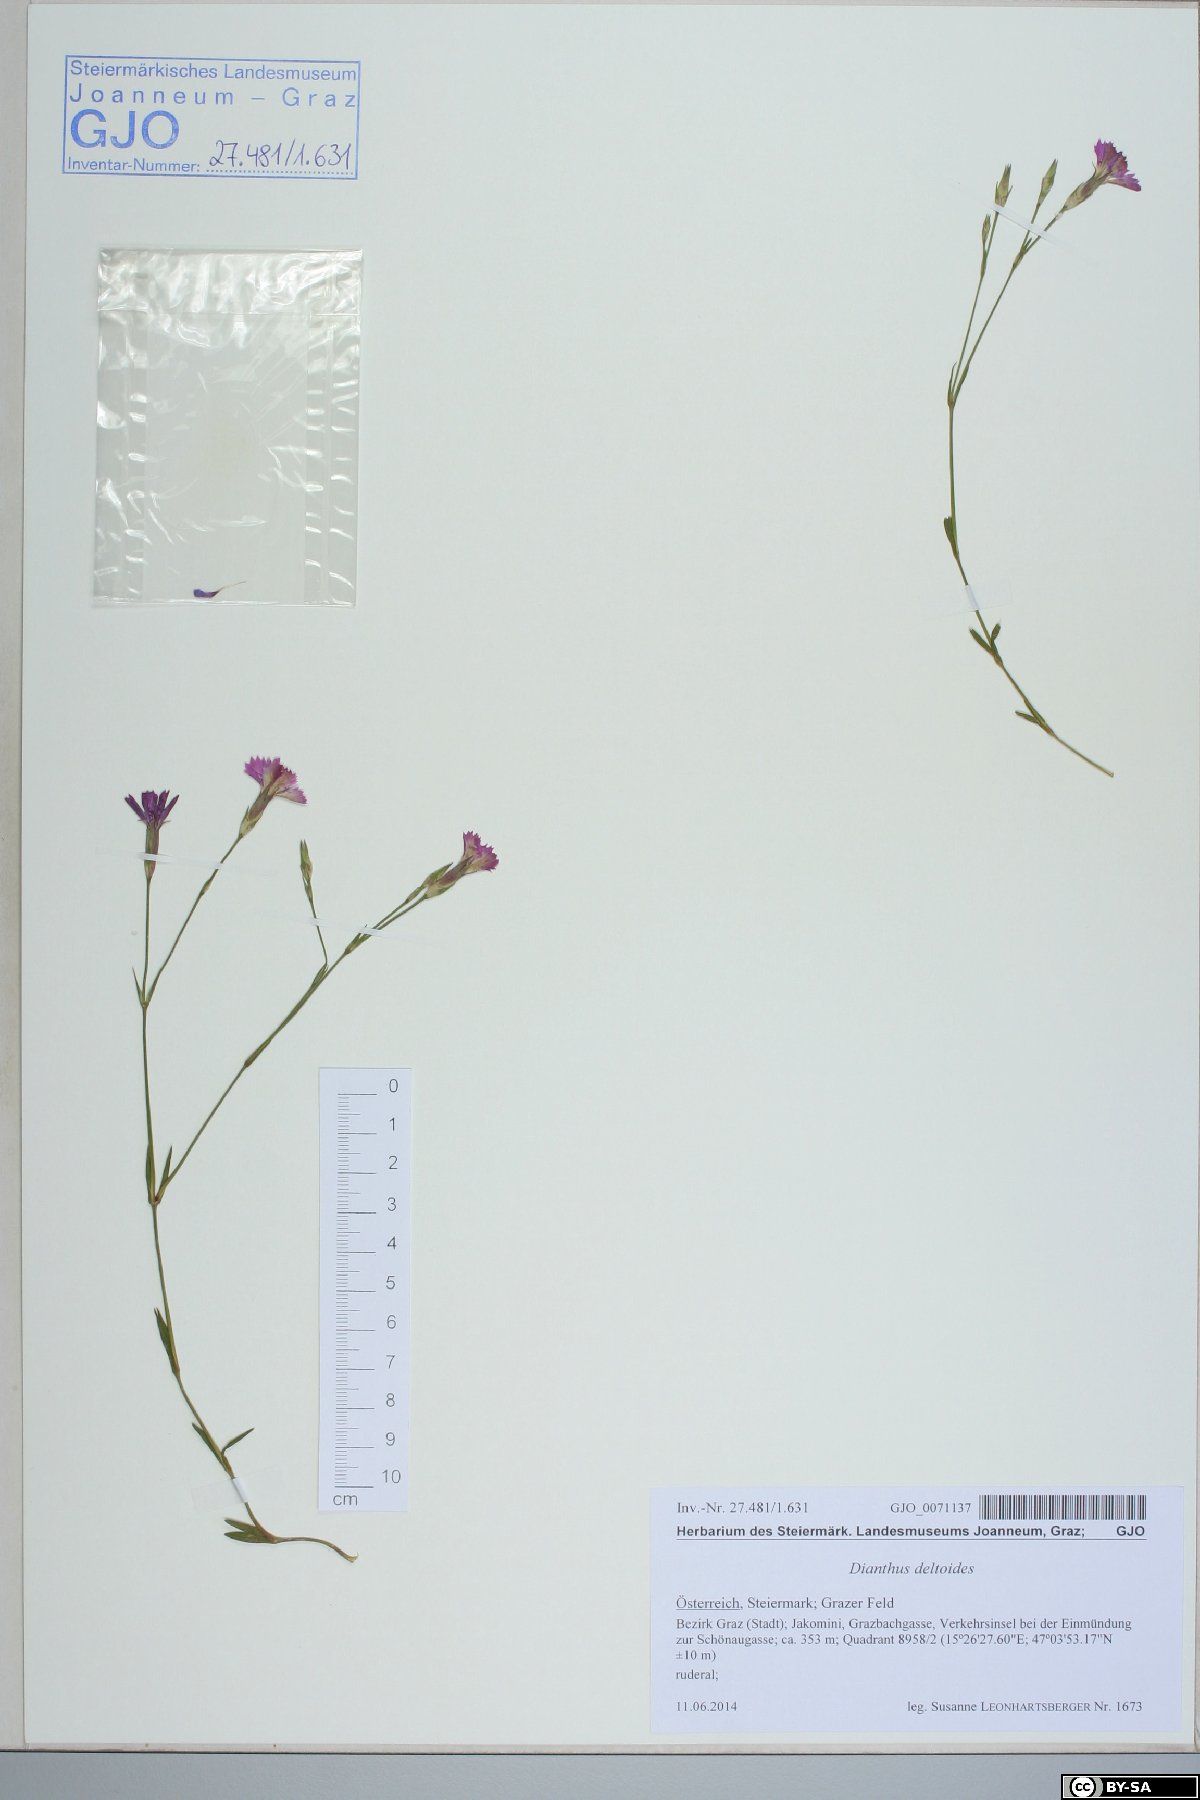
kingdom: Plantae
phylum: Tracheophyta
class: Magnoliopsida
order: Caryophyllales
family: Caryophyllaceae
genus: Dianthus
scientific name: Dianthus deltoides
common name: Maiden pink
